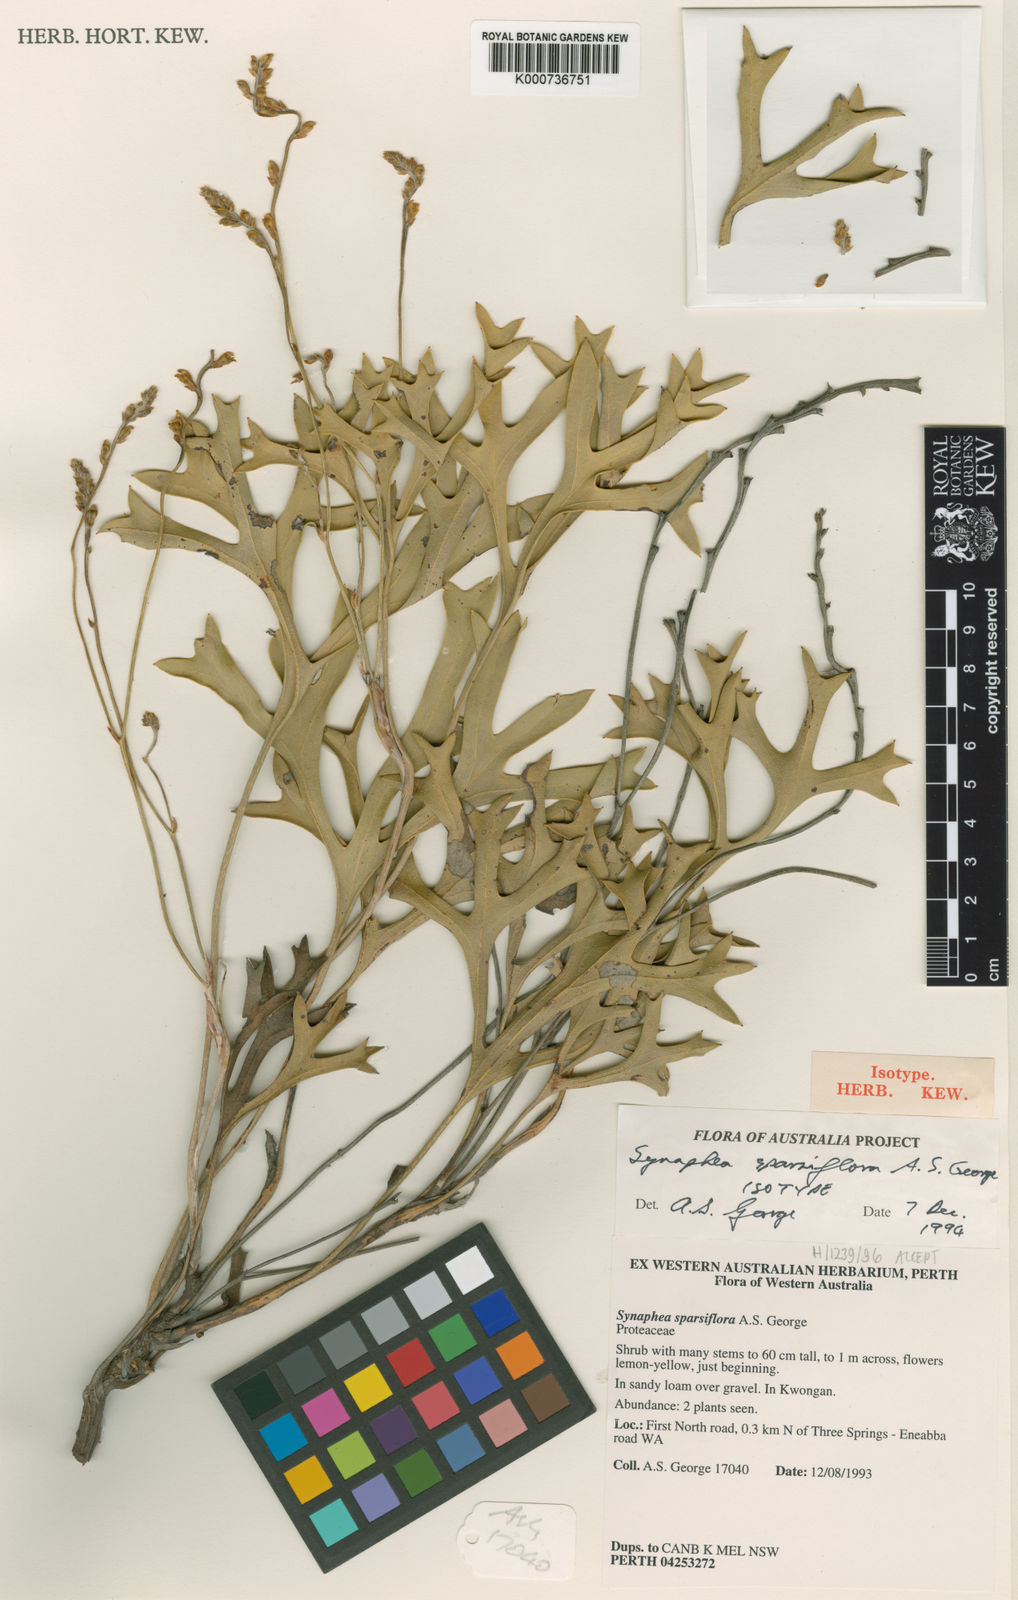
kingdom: Plantae
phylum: Tracheophyta
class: Magnoliopsida
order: Proteales
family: Proteaceae
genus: Synaphea
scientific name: Synaphea sparsiflora
